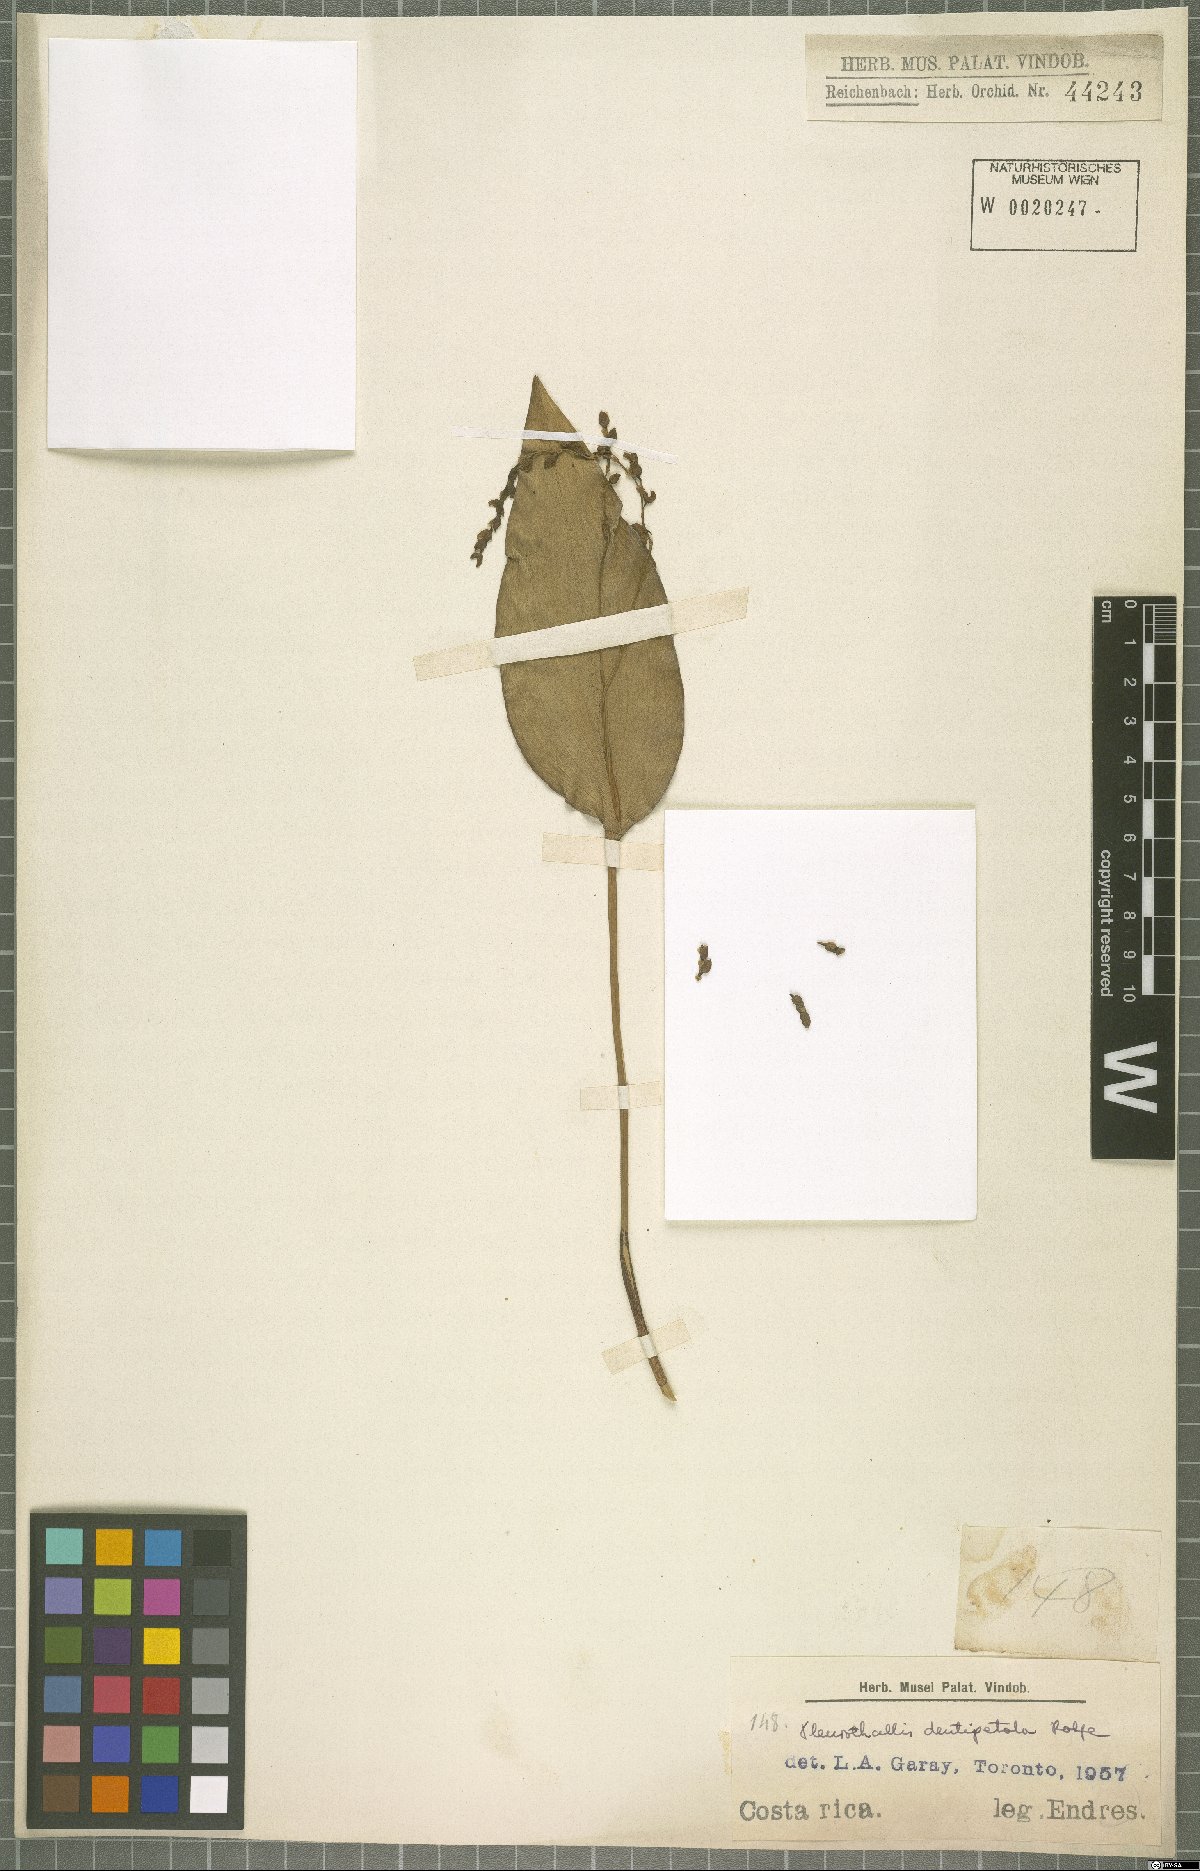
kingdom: Plantae
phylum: Tracheophyta
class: Liliopsida
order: Asparagales
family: Orchidaceae
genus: Pleurothallis
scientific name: Pleurothallis dentipetala
